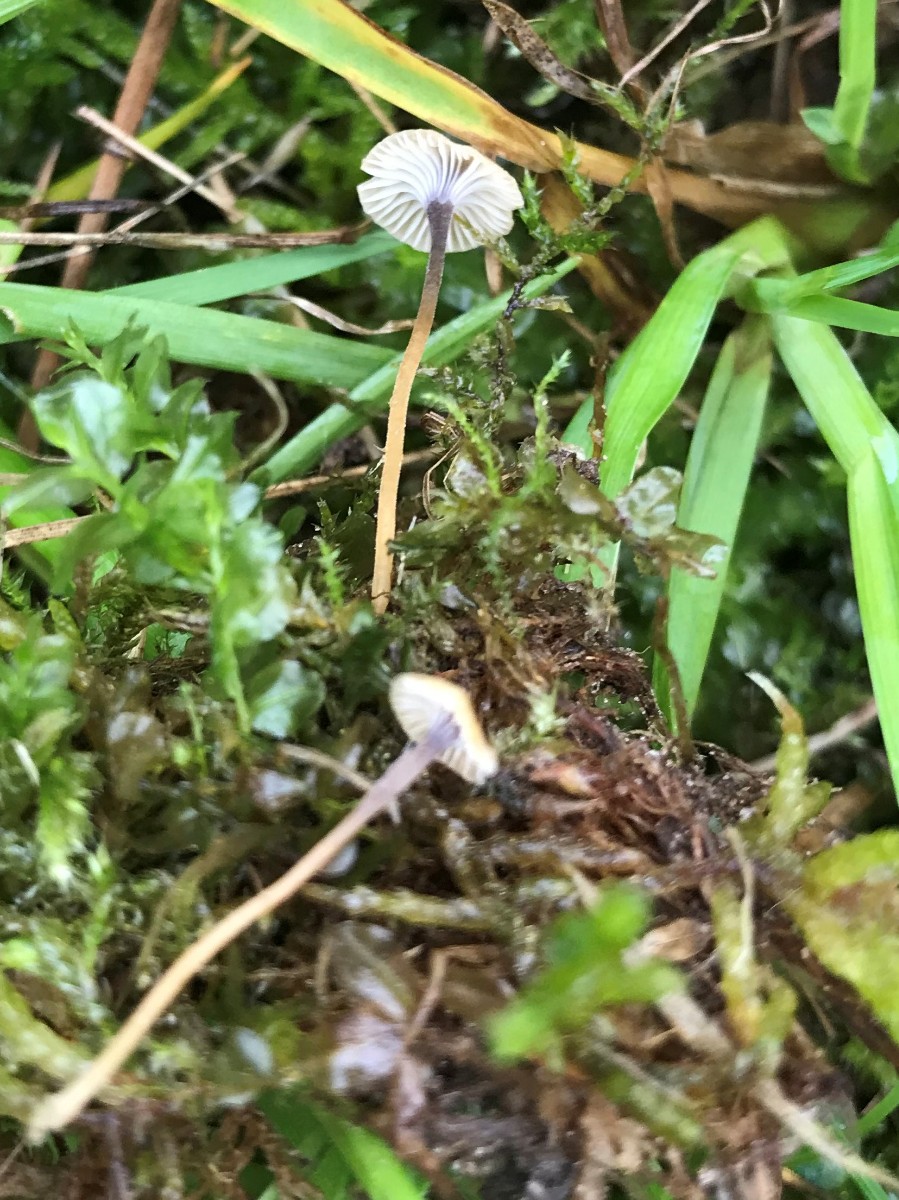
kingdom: Fungi
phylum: Basidiomycota
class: Agaricomycetes
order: Hymenochaetales
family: Rickenellaceae
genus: Rickenella
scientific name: Rickenella swartzii
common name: finstokket mosnavlehat
